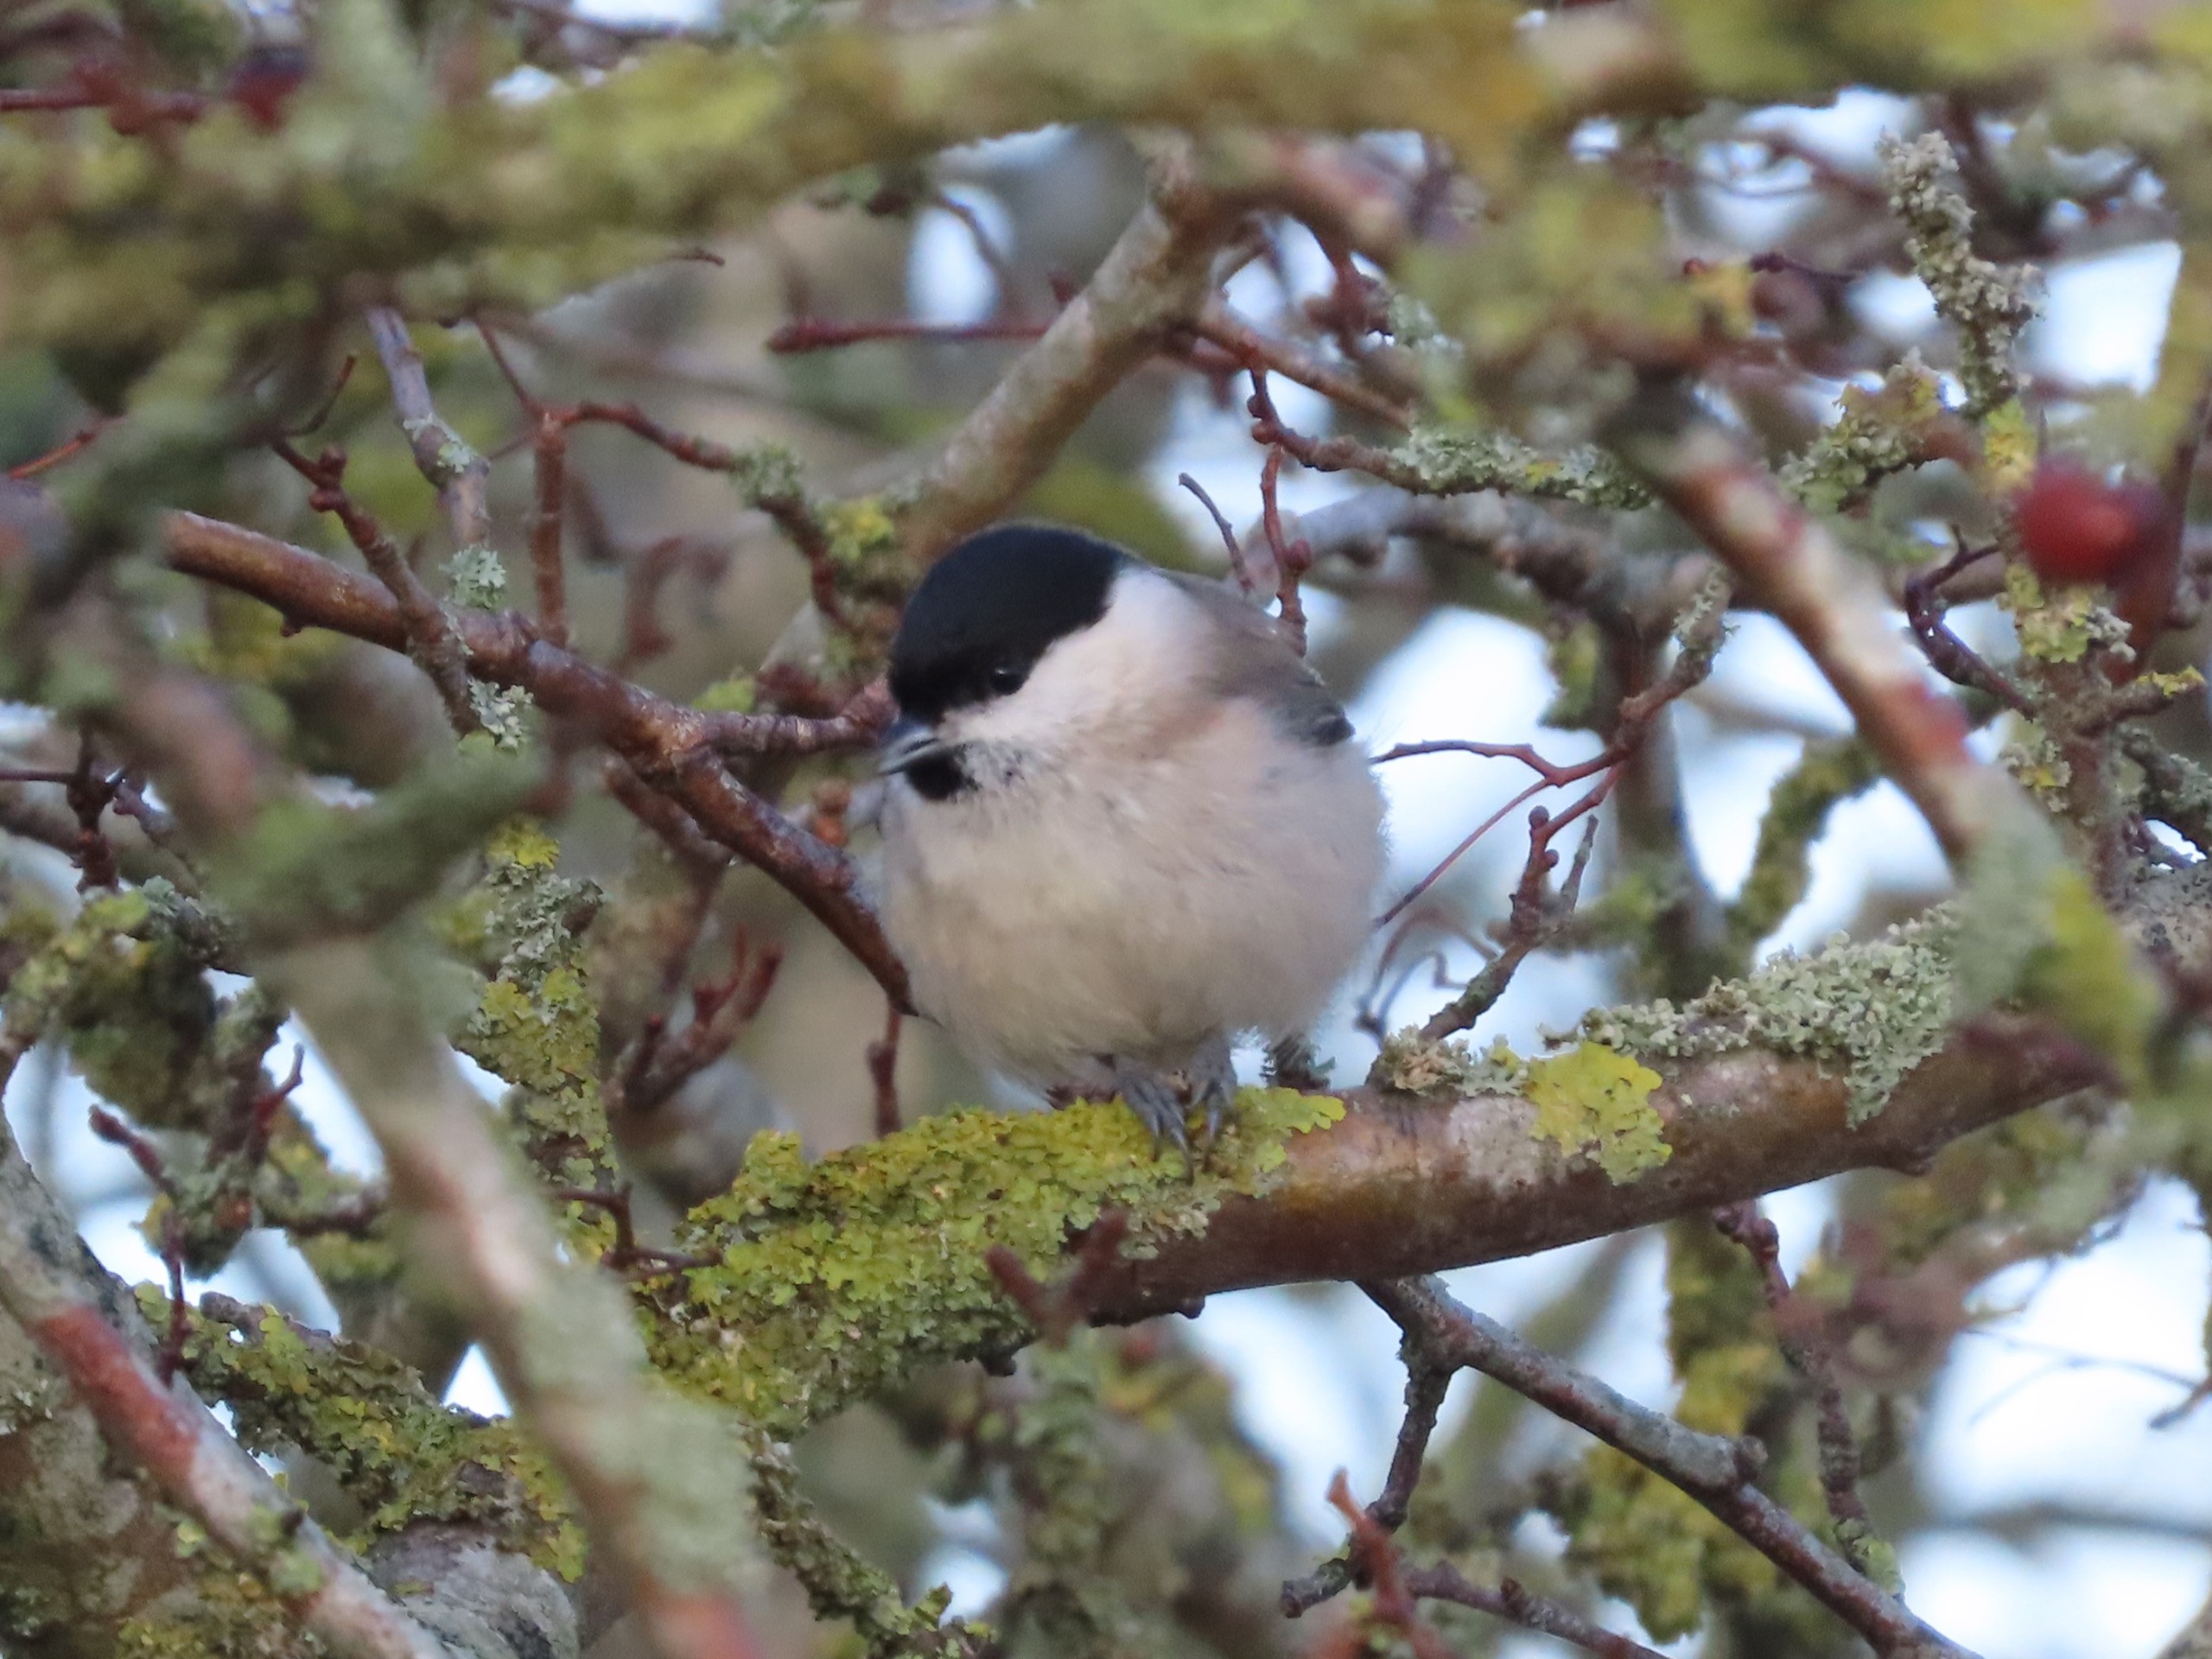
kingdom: Animalia
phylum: Chordata
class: Aves
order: Passeriformes
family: Paridae
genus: Poecile
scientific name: Poecile palustris
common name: Sumpmejse
